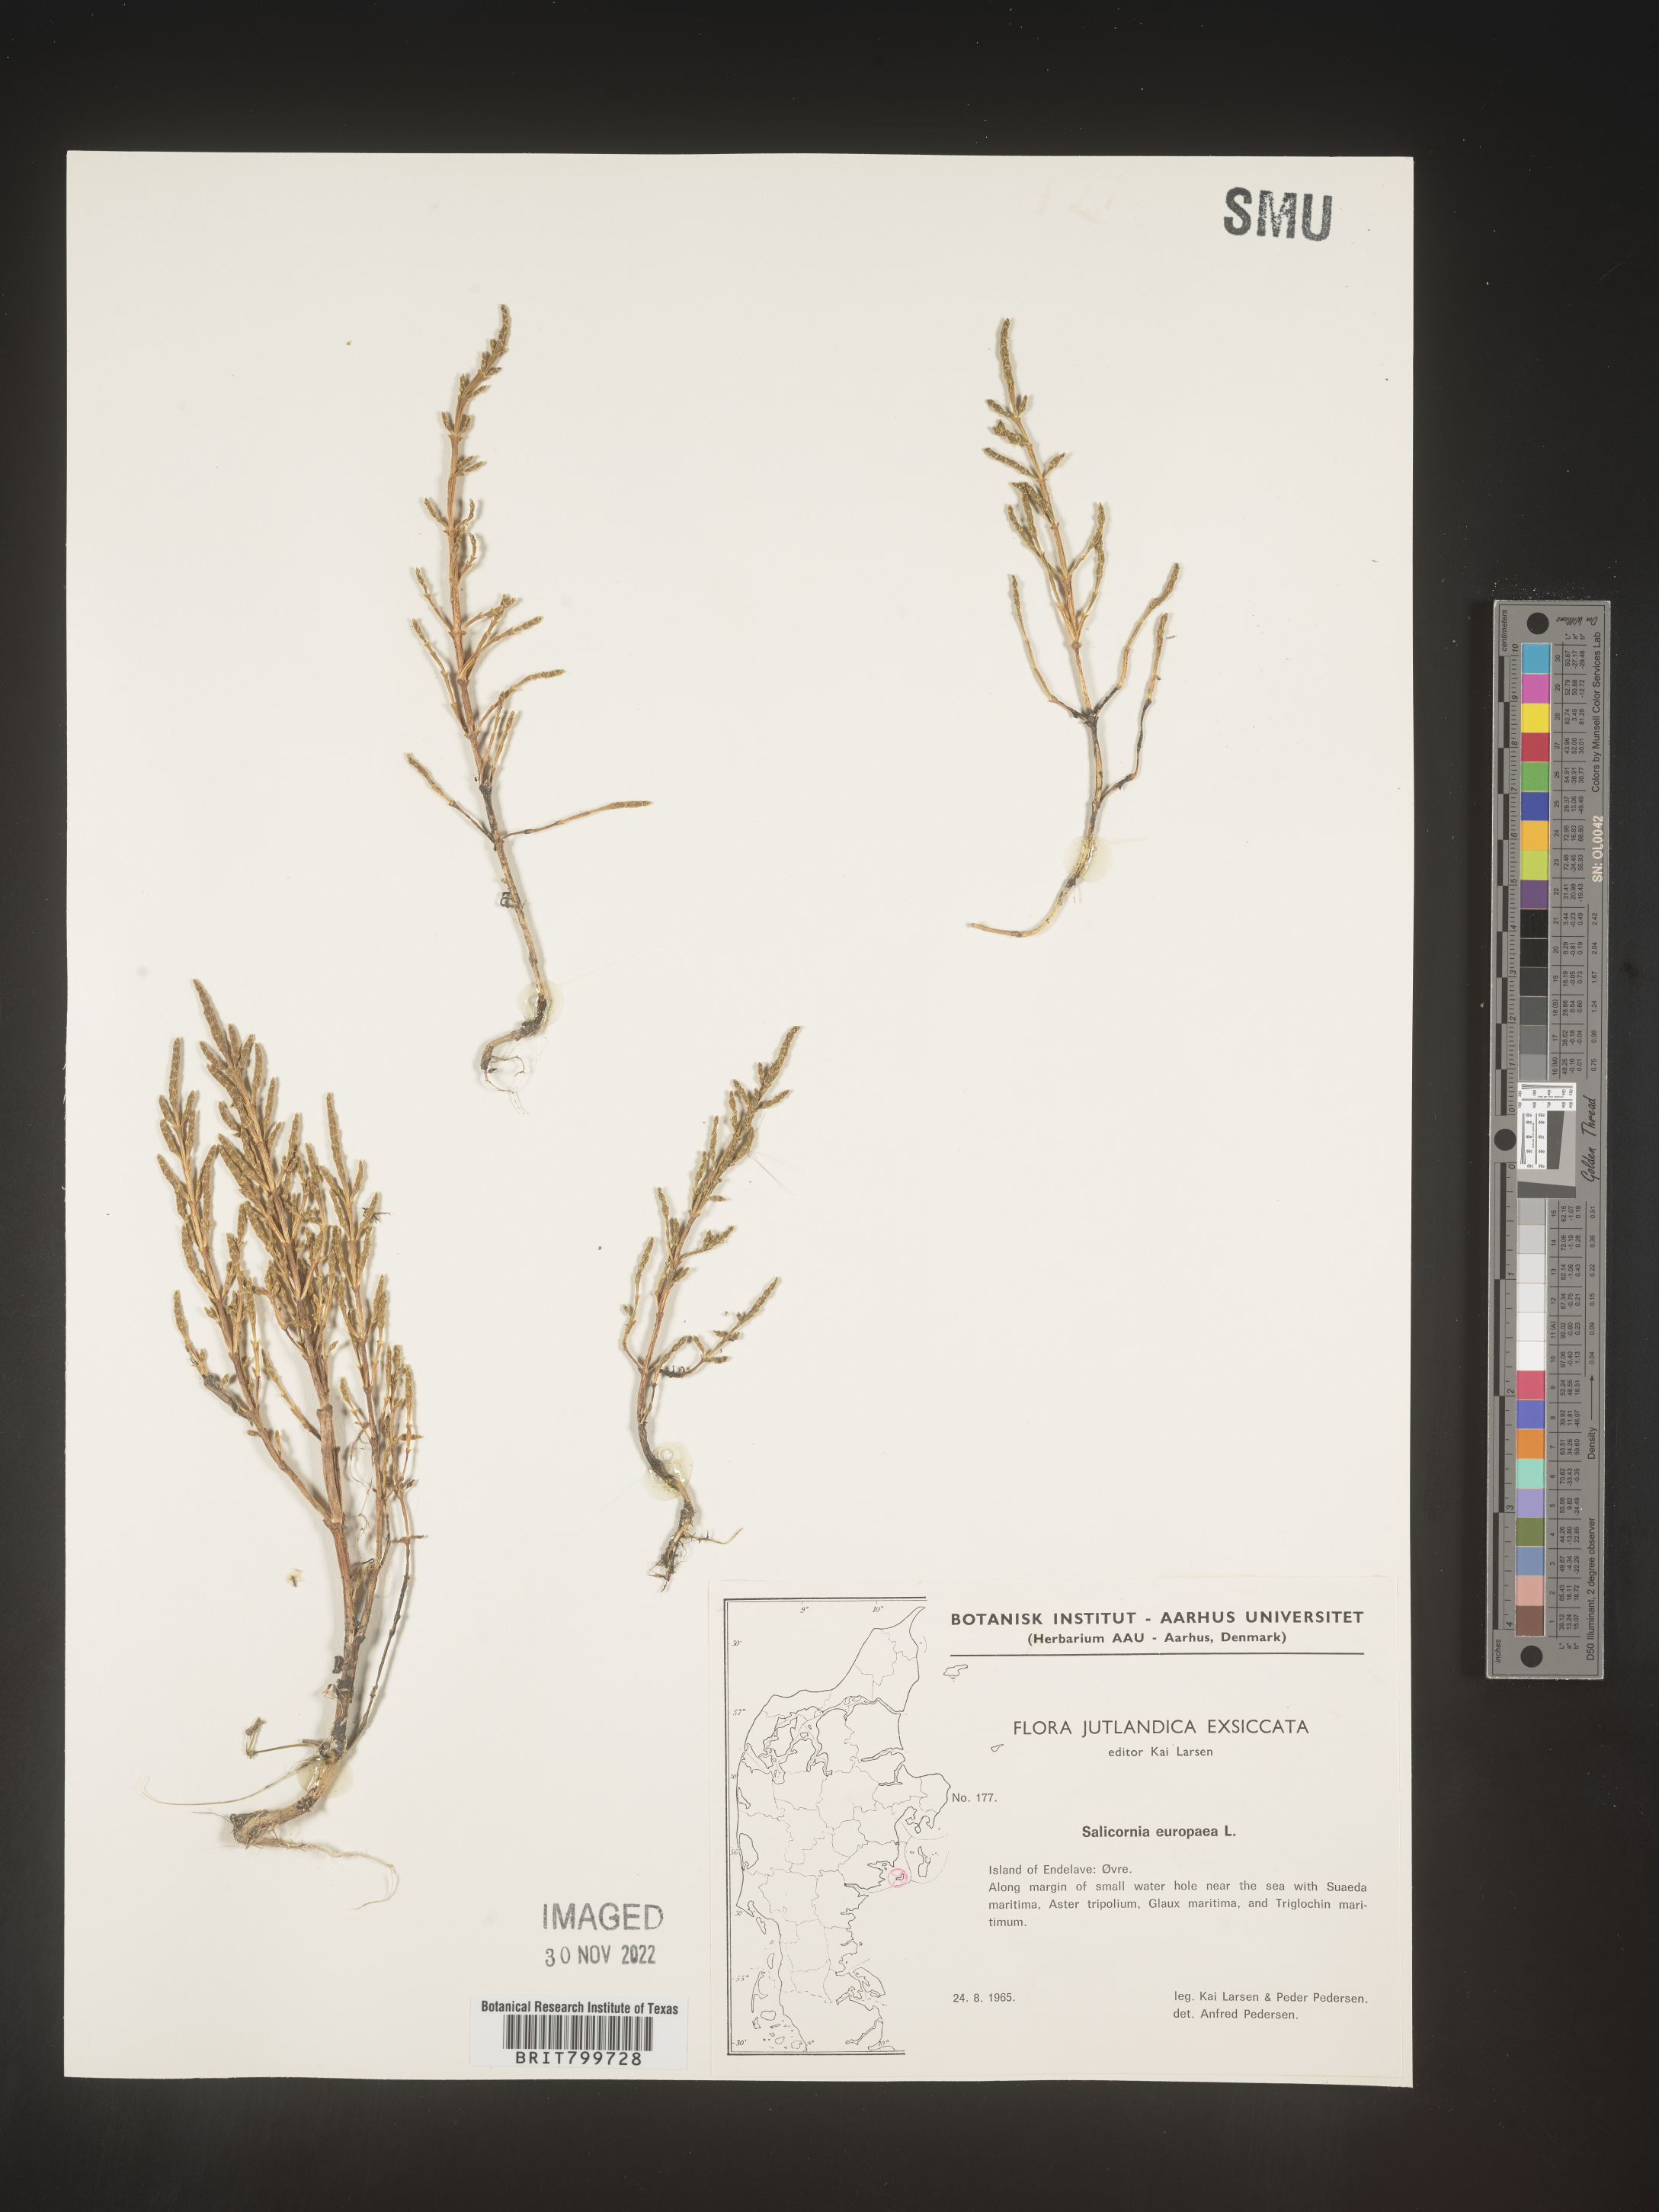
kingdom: Plantae
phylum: Tracheophyta
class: Magnoliopsida
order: Caryophyllales
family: Amaranthaceae
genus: Salicornia
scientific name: Salicornia
